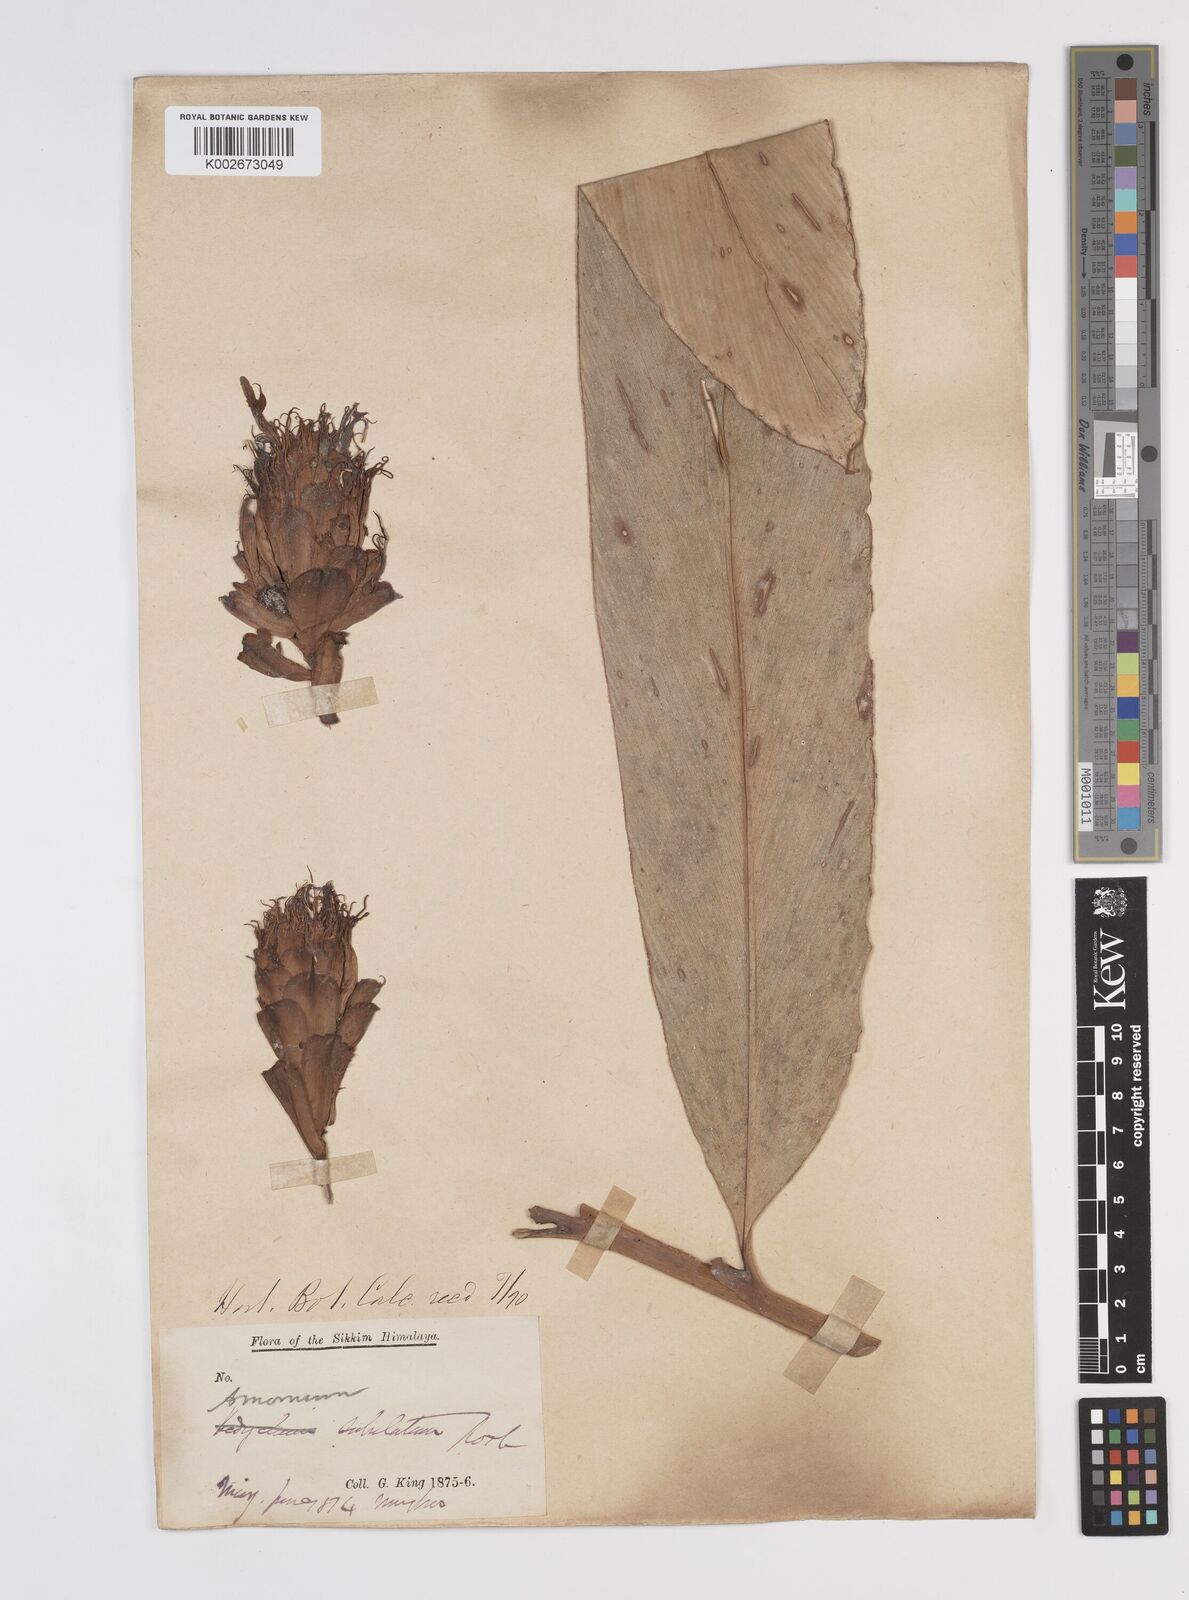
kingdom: Plantae
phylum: Tracheophyta
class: Liliopsida
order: Zingiberales
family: Zingiberaceae
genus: Amomum
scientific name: Amomum subulatum
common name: Black cardamom
